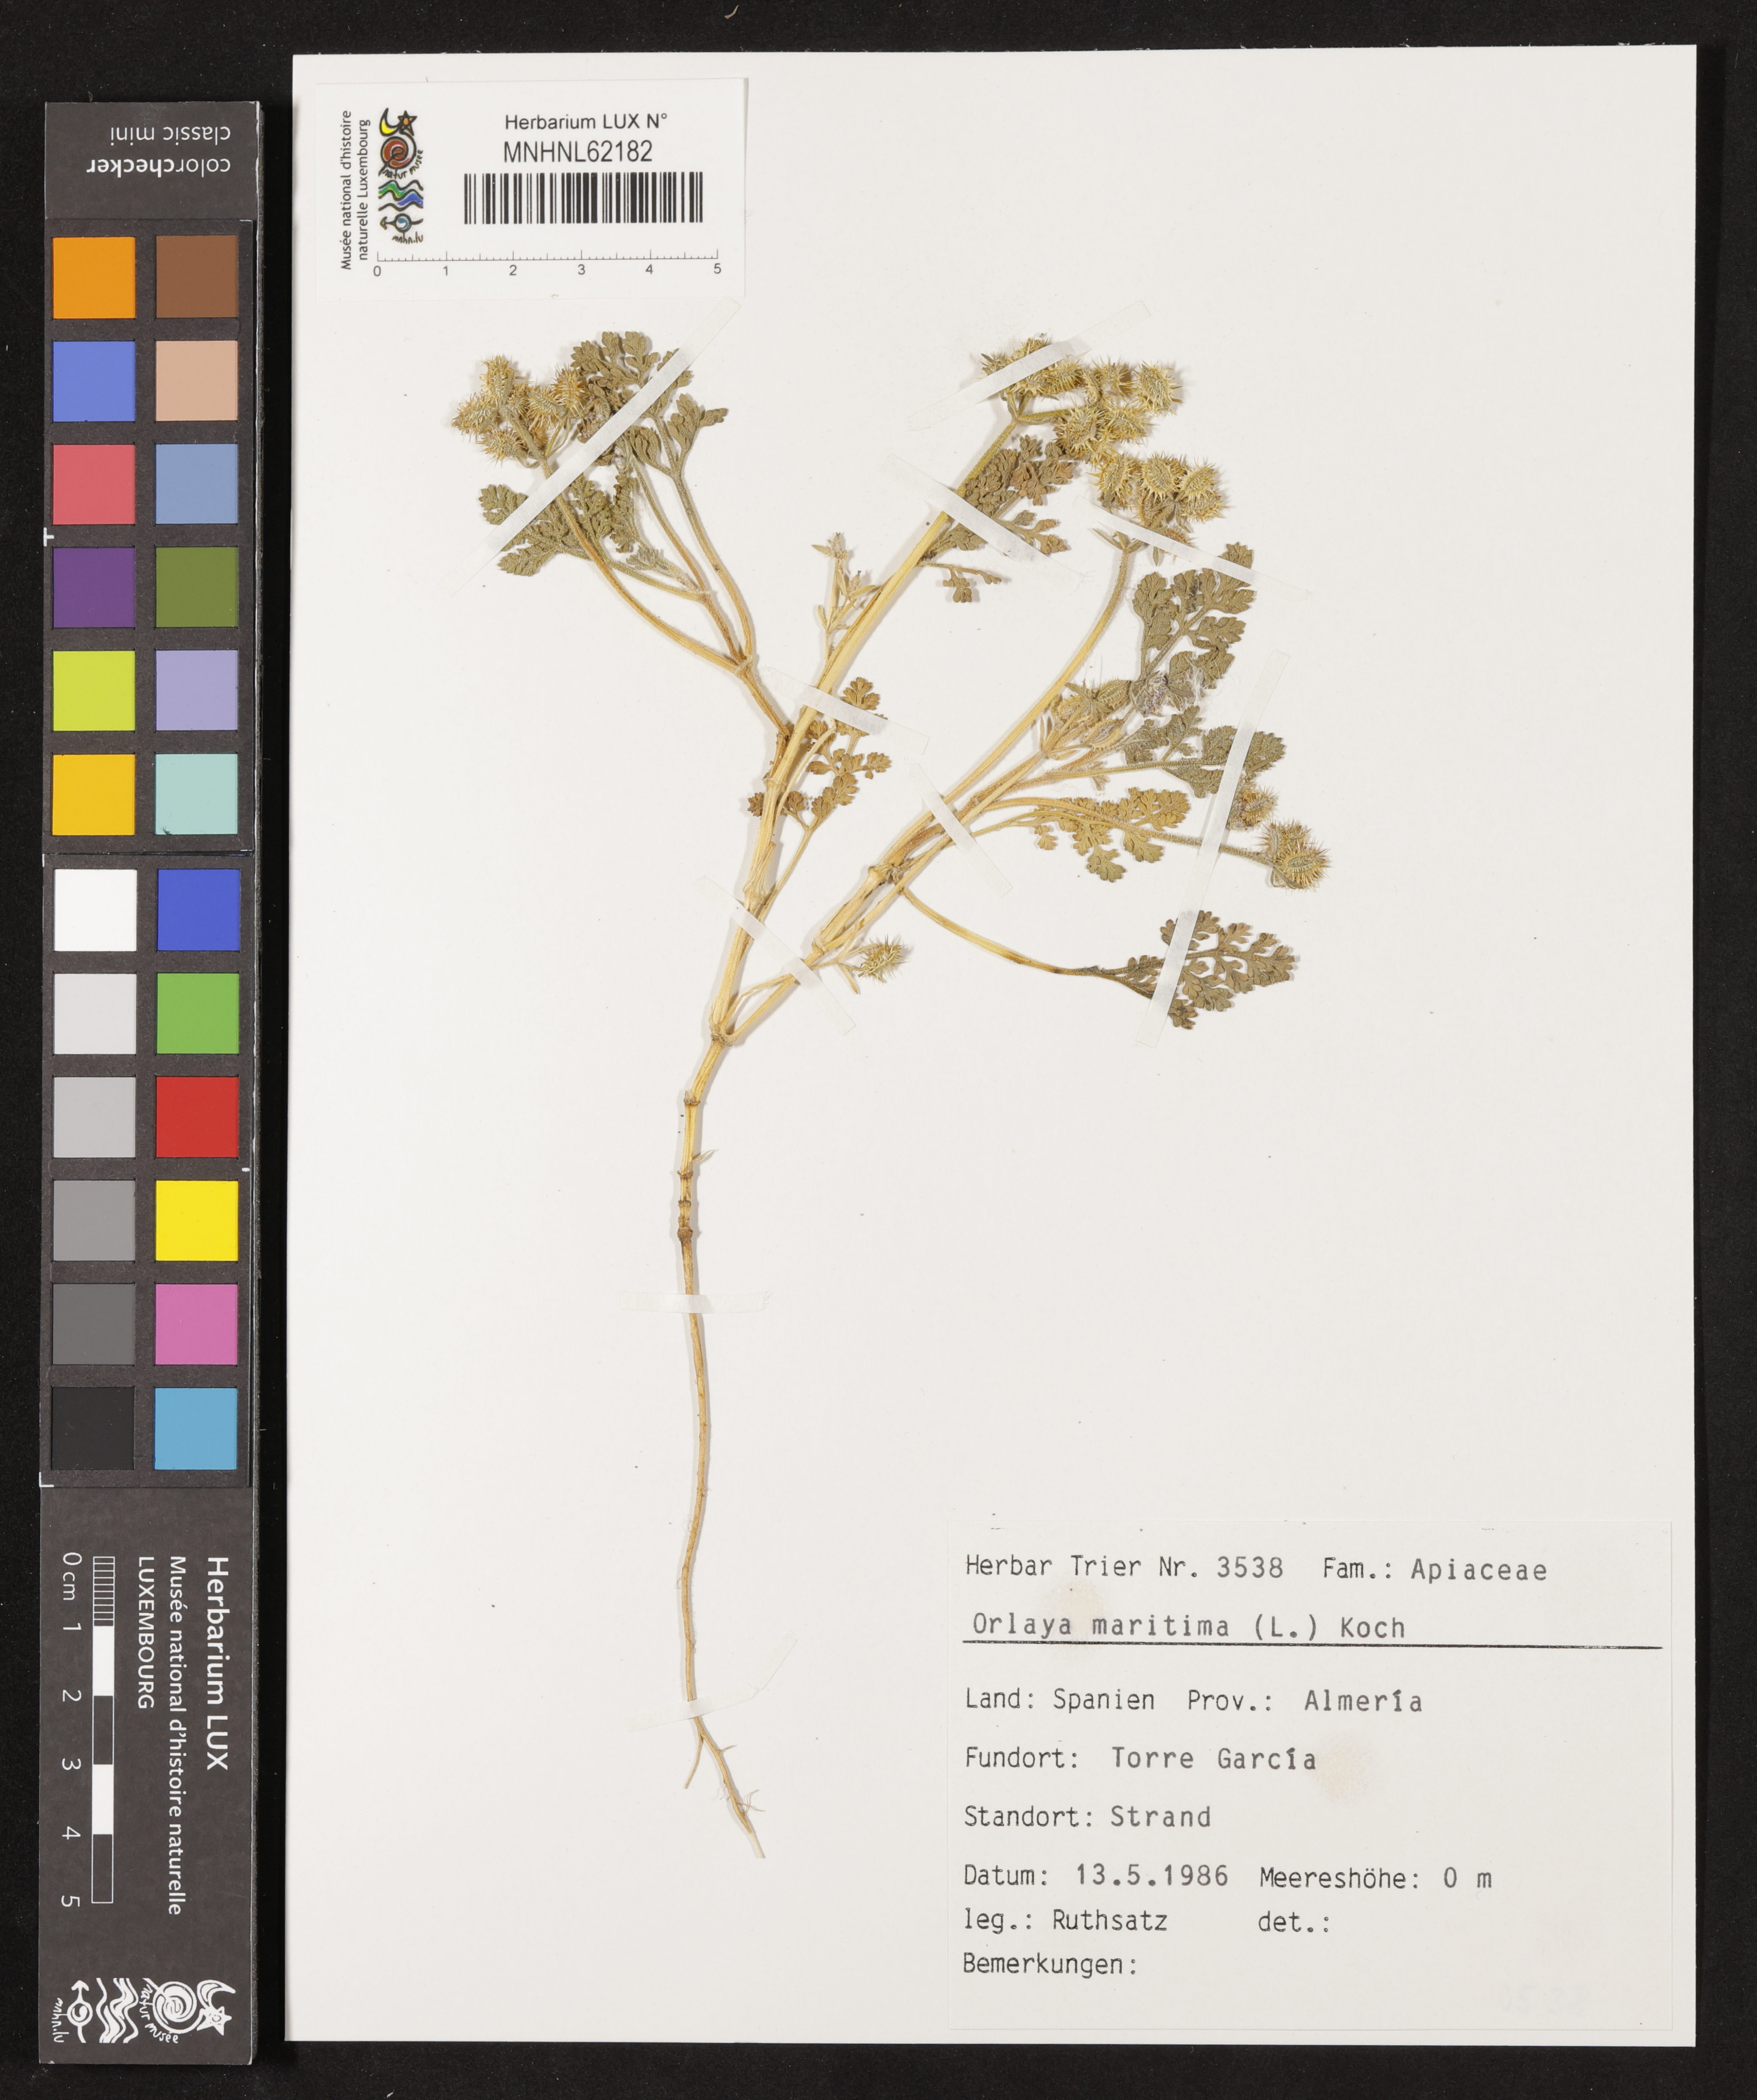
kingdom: Plantae
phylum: Tracheophyta
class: Magnoliopsida
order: Apiales
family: Apiaceae
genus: Daucus
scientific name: Daucus pumilus
